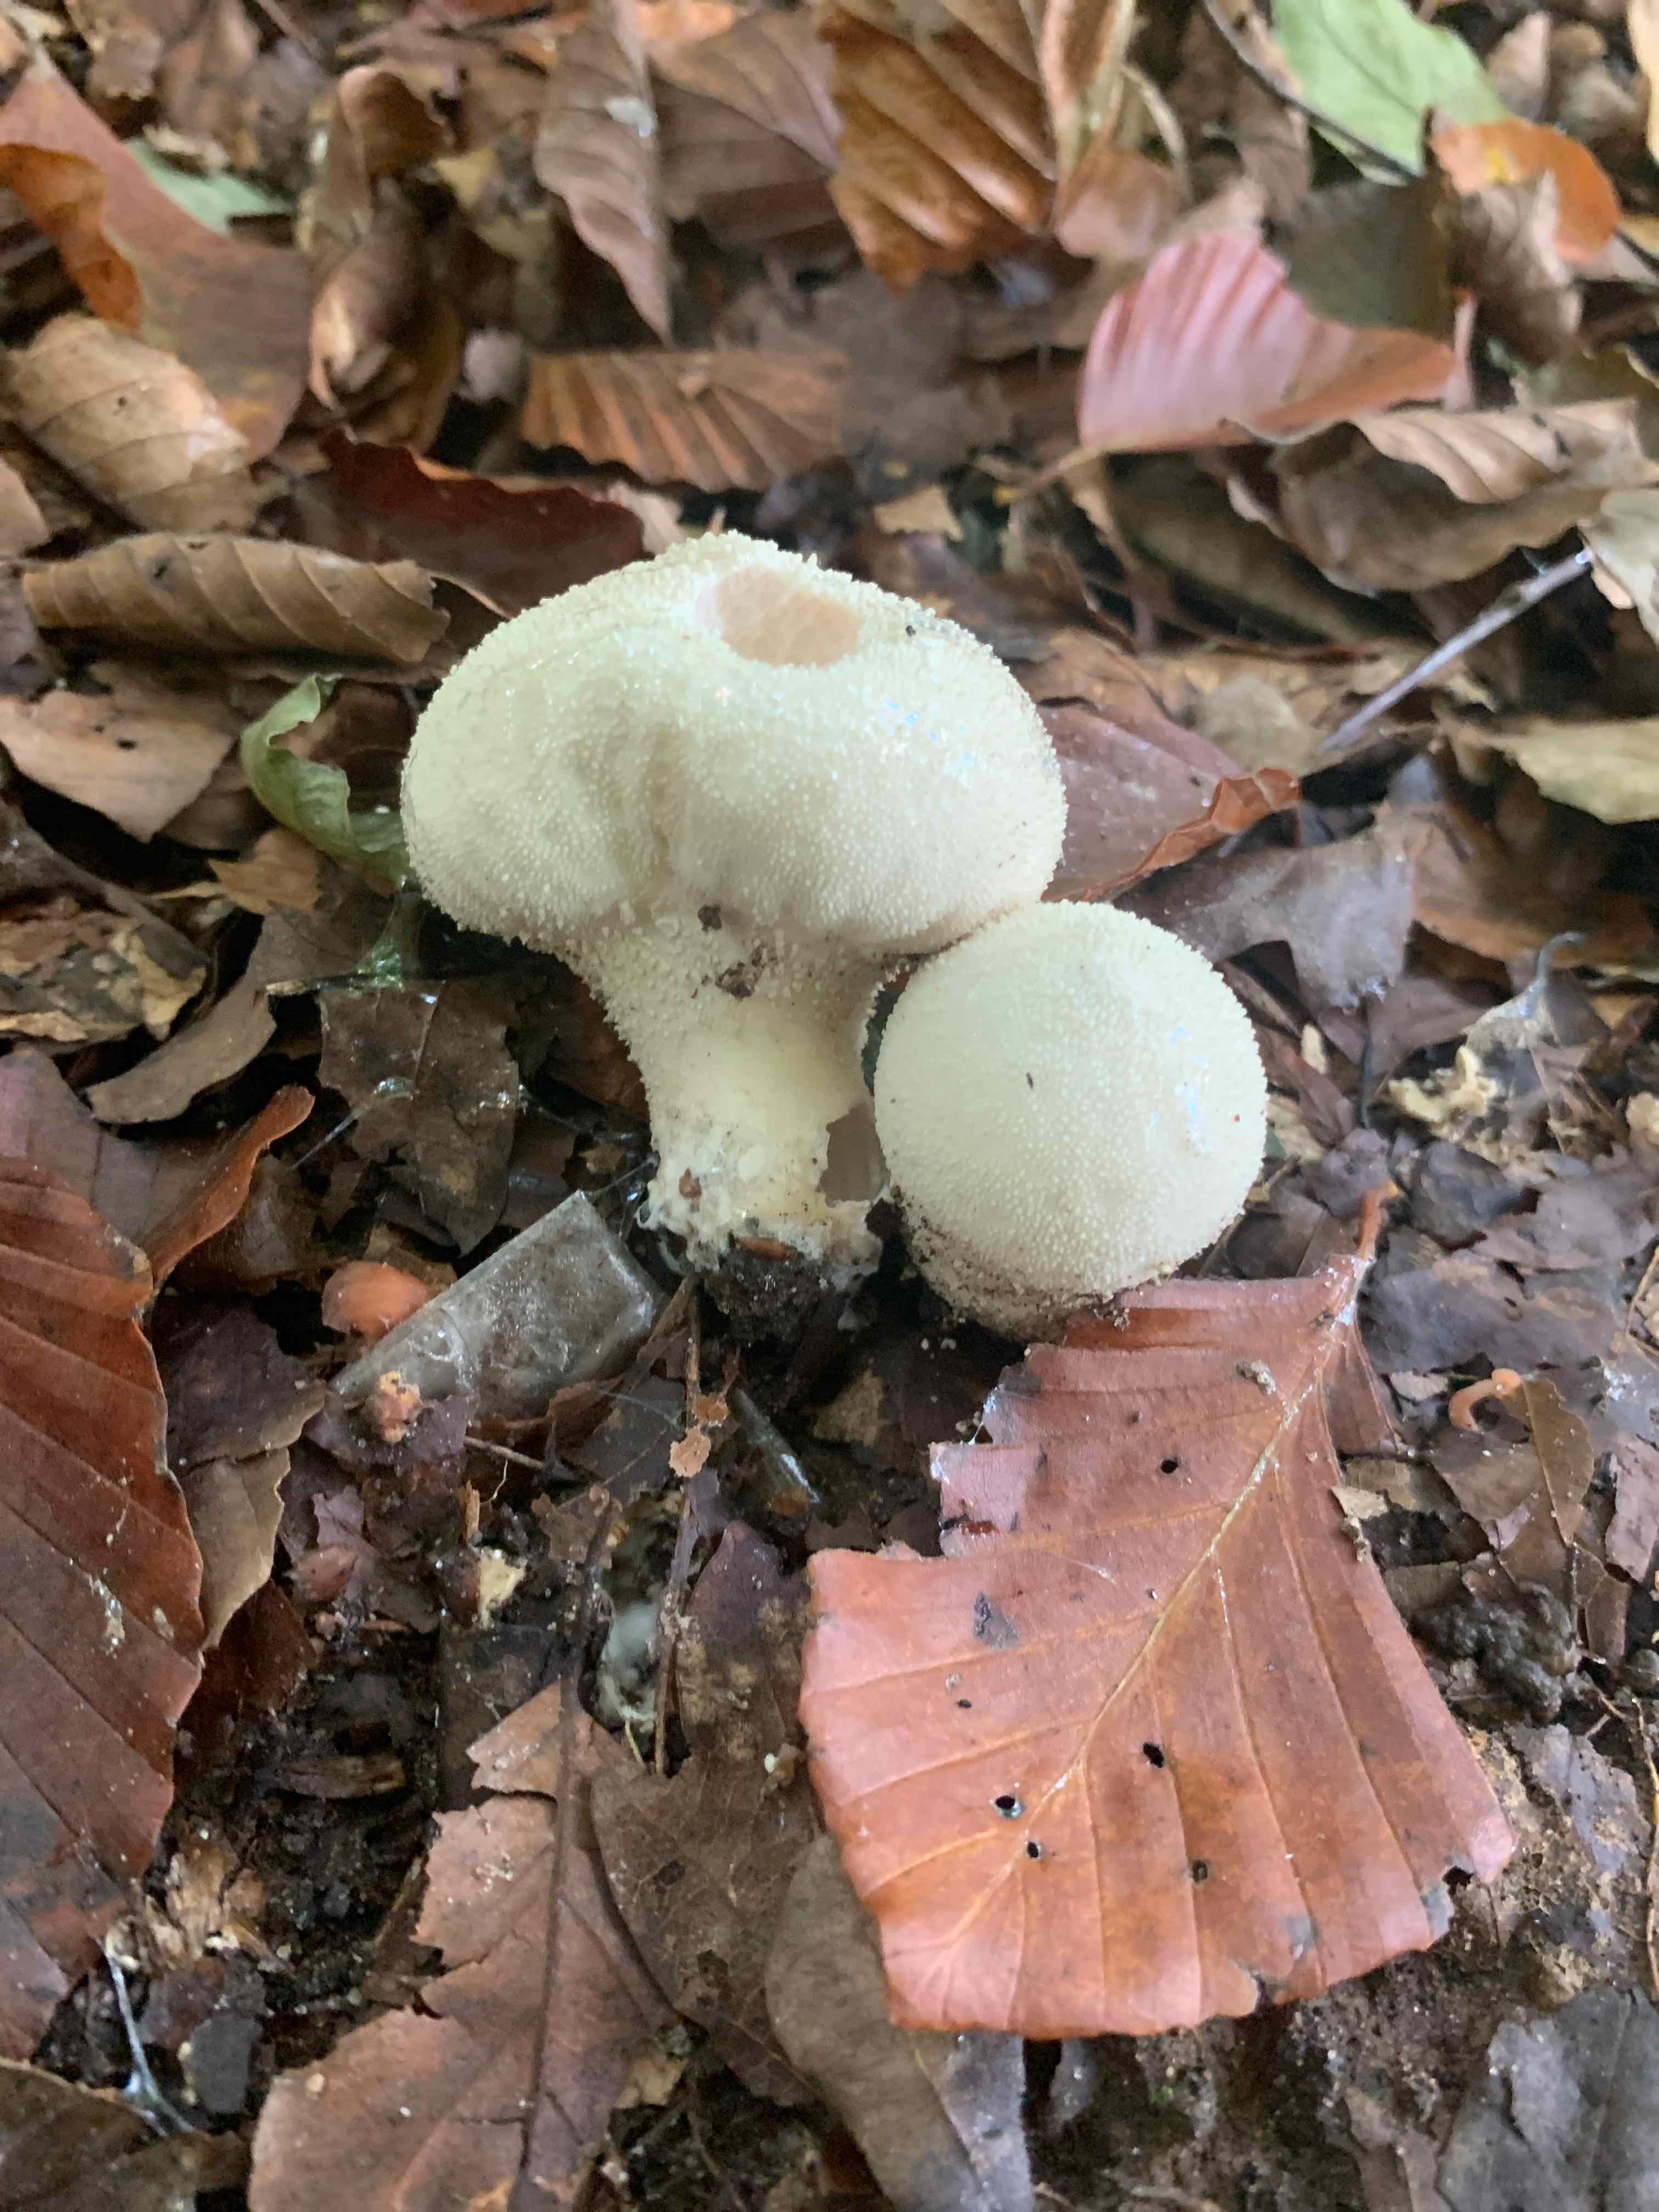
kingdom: Fungi
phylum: Basidiomycota
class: Agaricomycetes
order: Agaricales
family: Lycoperdaceae
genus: Lycoperdon
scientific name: Lycoperdon perlatum
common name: krystal-støvbold
